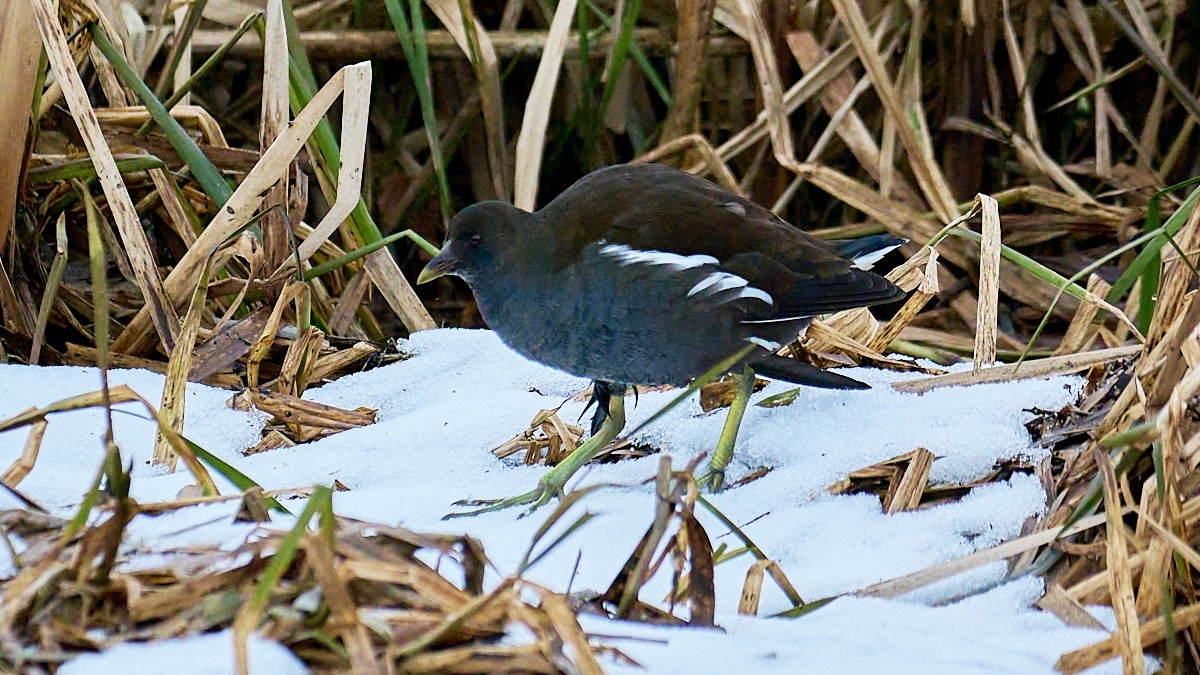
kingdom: Animalia
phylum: Chordata
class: Aves
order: Gruiformes
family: Rallidae
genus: Gallinula
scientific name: Gallinula chloropus
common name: Grønbenet rørhøne
